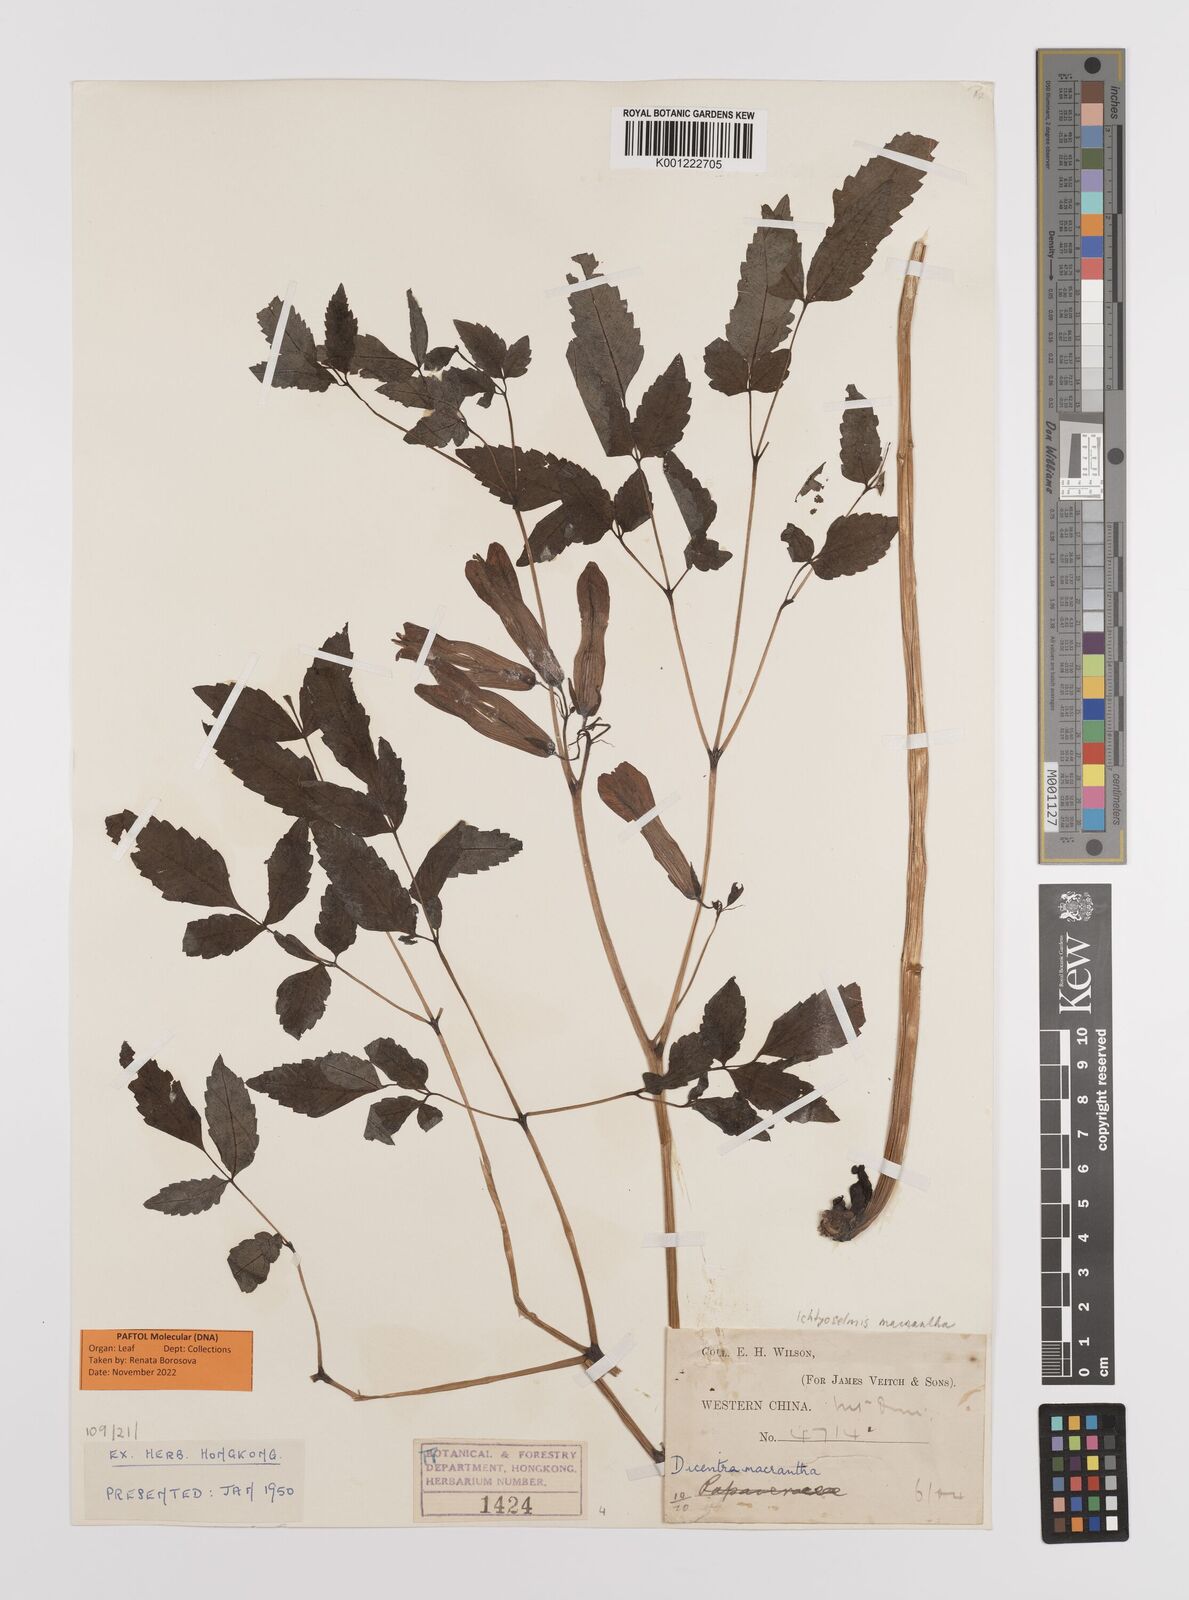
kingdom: Plantae
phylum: Tracheophyta
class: Magnoliopsida
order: Ranunculales
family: Papaveraceae
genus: Ichtyoselmis
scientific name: Ichtyoselmis macrantha
